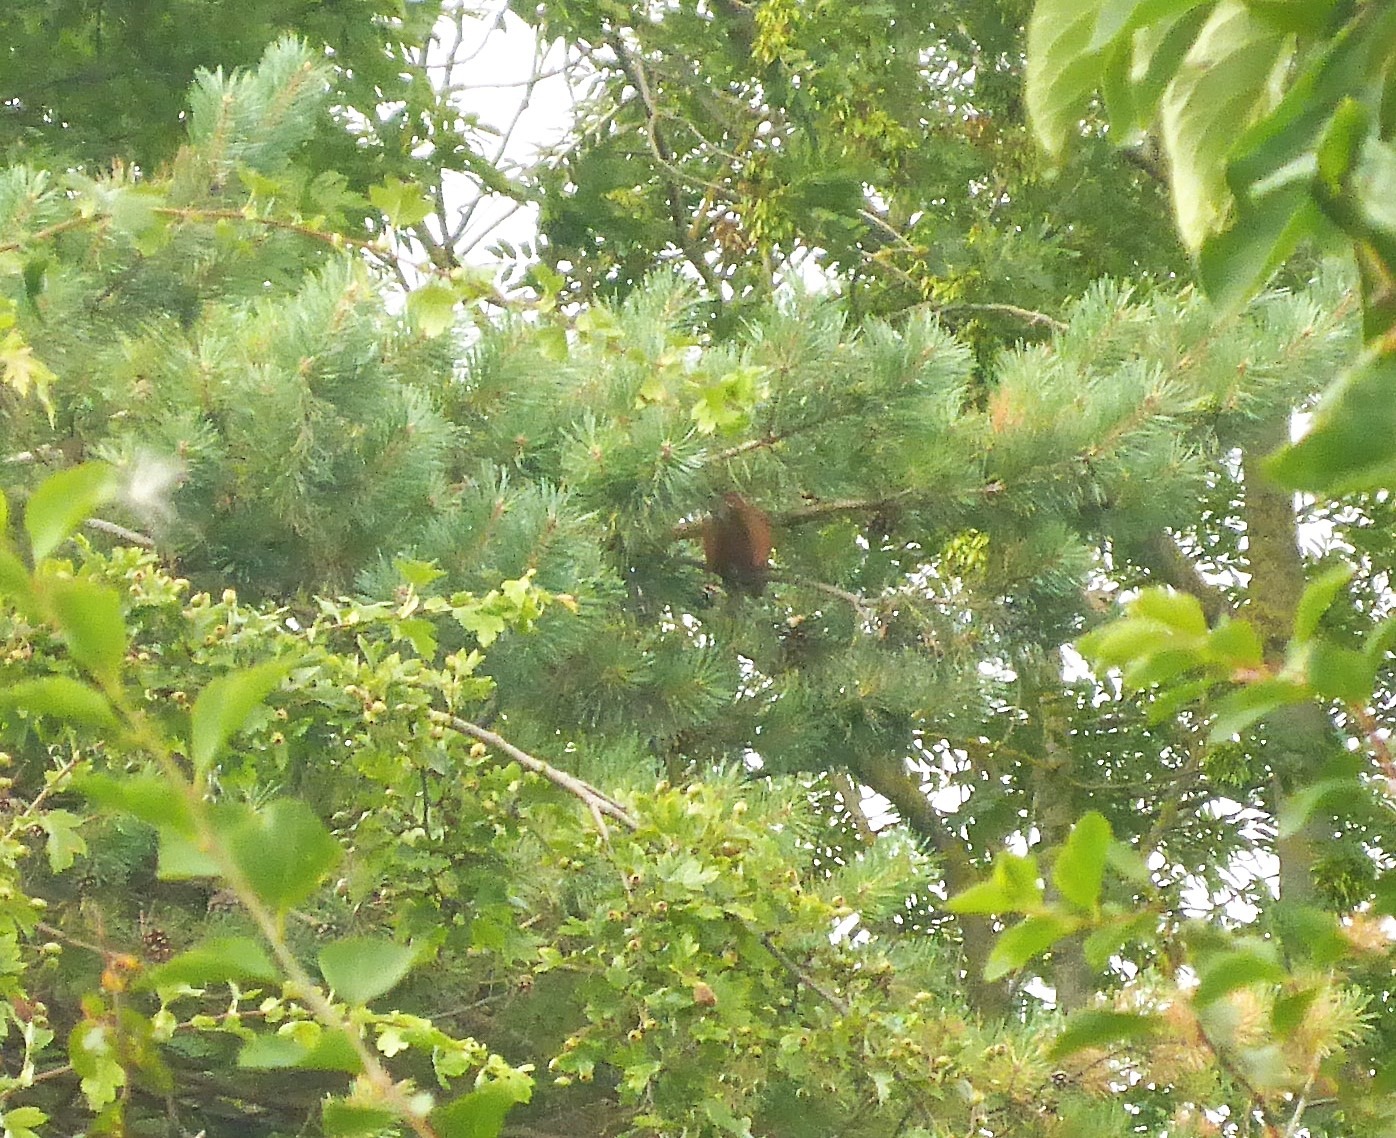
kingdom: Animalia
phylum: Chordata
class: Mammalia
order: Rodentia
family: Sciuridae
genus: Sciurus
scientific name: Sciurus vulgaris
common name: Egern
